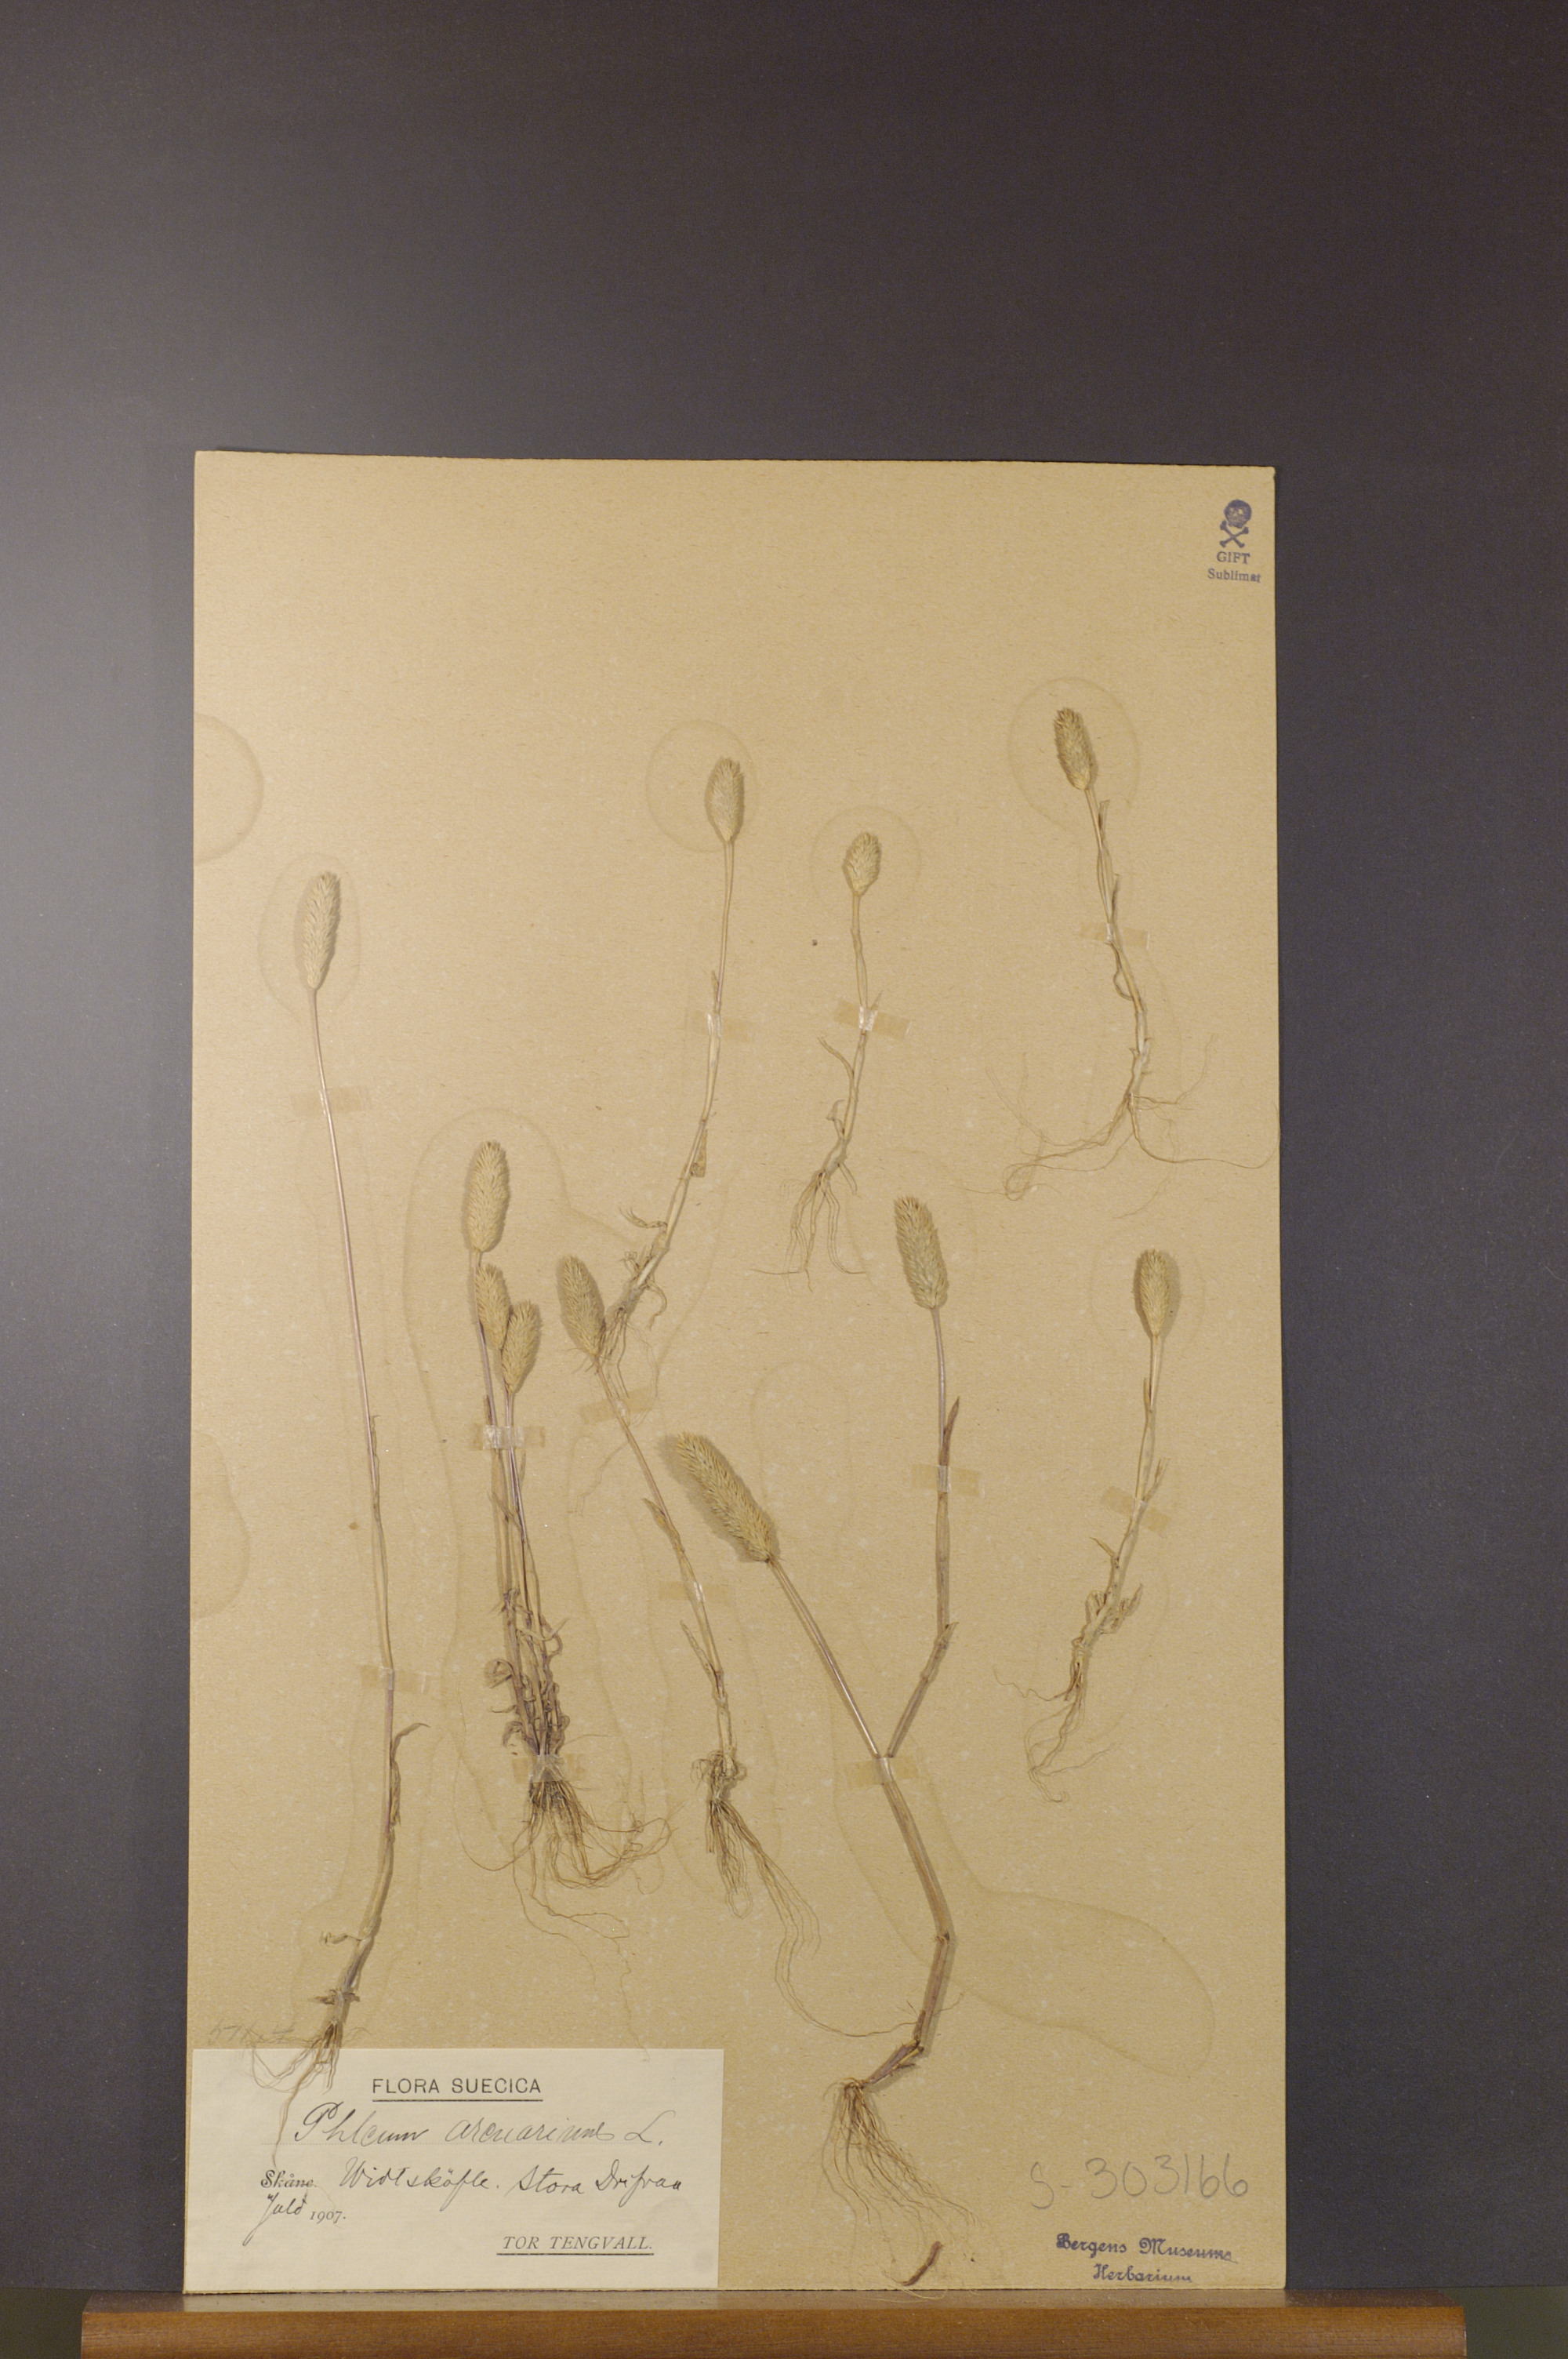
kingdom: Plantae
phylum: Tracheophyta
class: Liliopsida
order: Poales
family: Poaceae
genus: Phleum
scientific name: Phleum arenarium
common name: Sand cat's-tail
